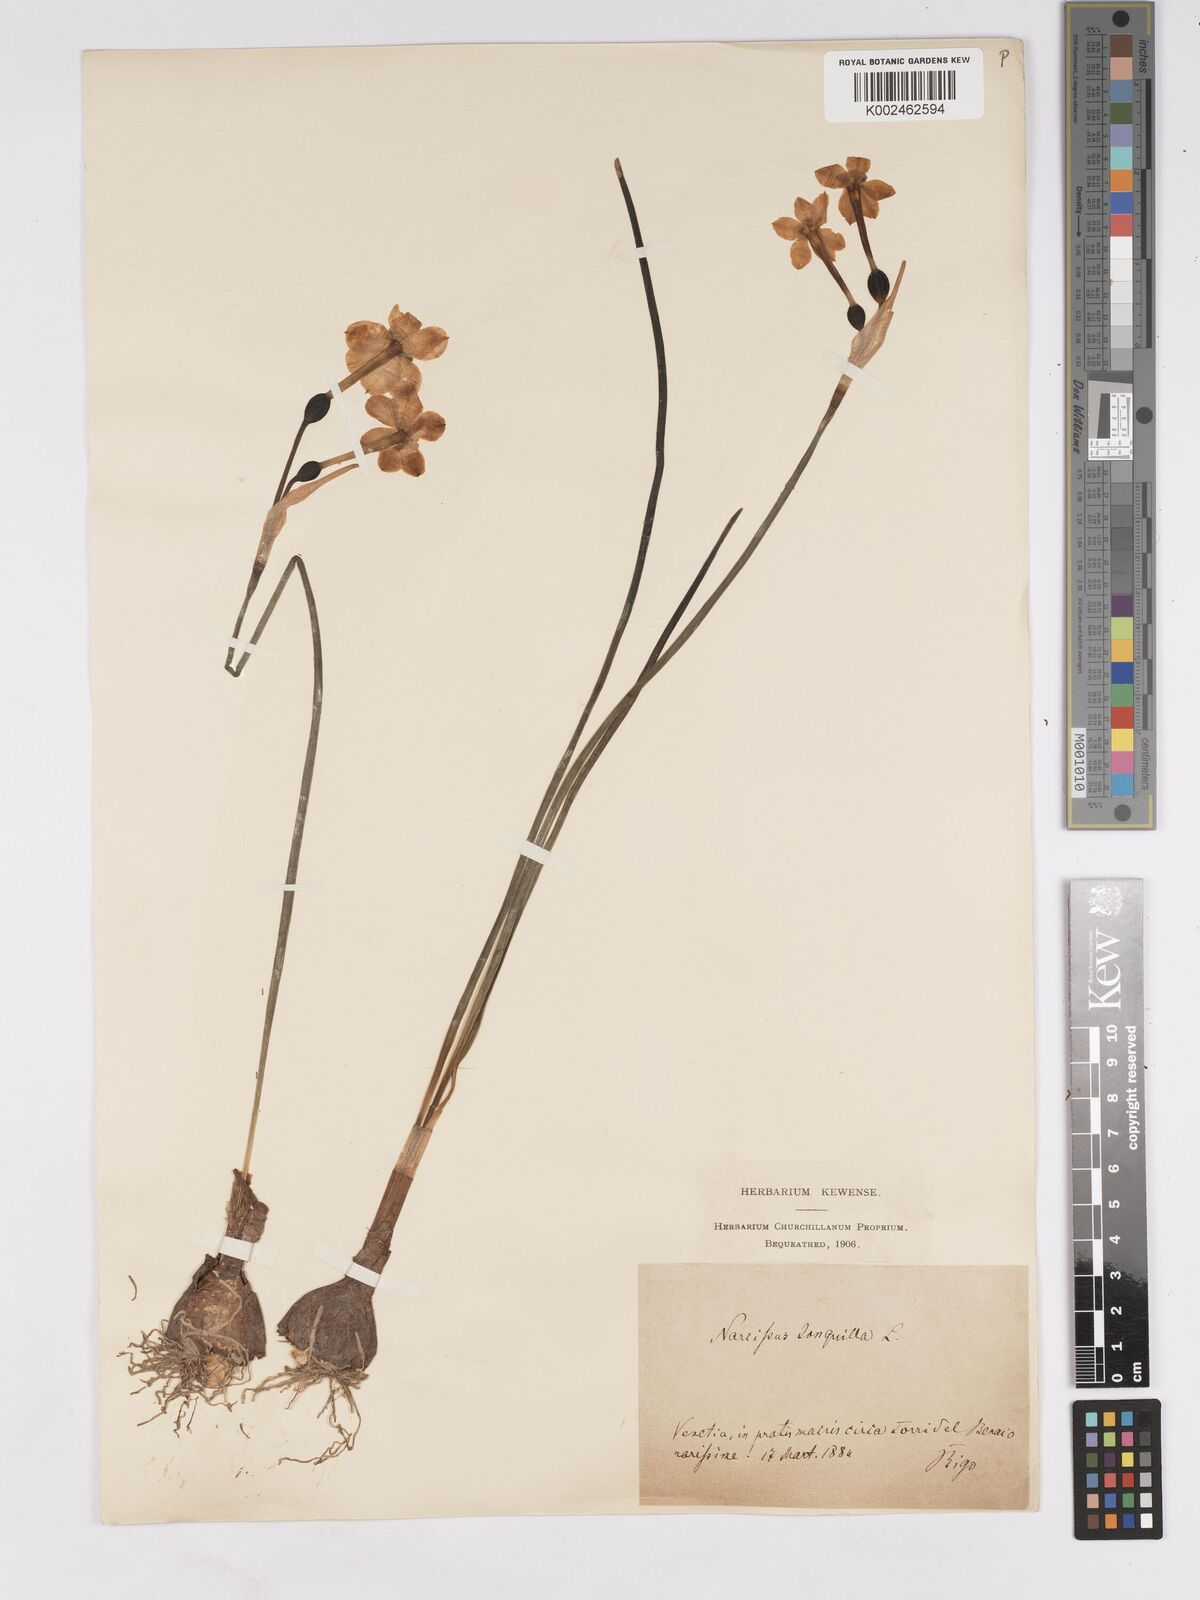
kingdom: Plantae
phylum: Tracheophyta
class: Liliopsida
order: Asparagales
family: Amaryllidaceae
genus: Narcissus
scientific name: Narcissus jonquilla
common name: Jonquil
